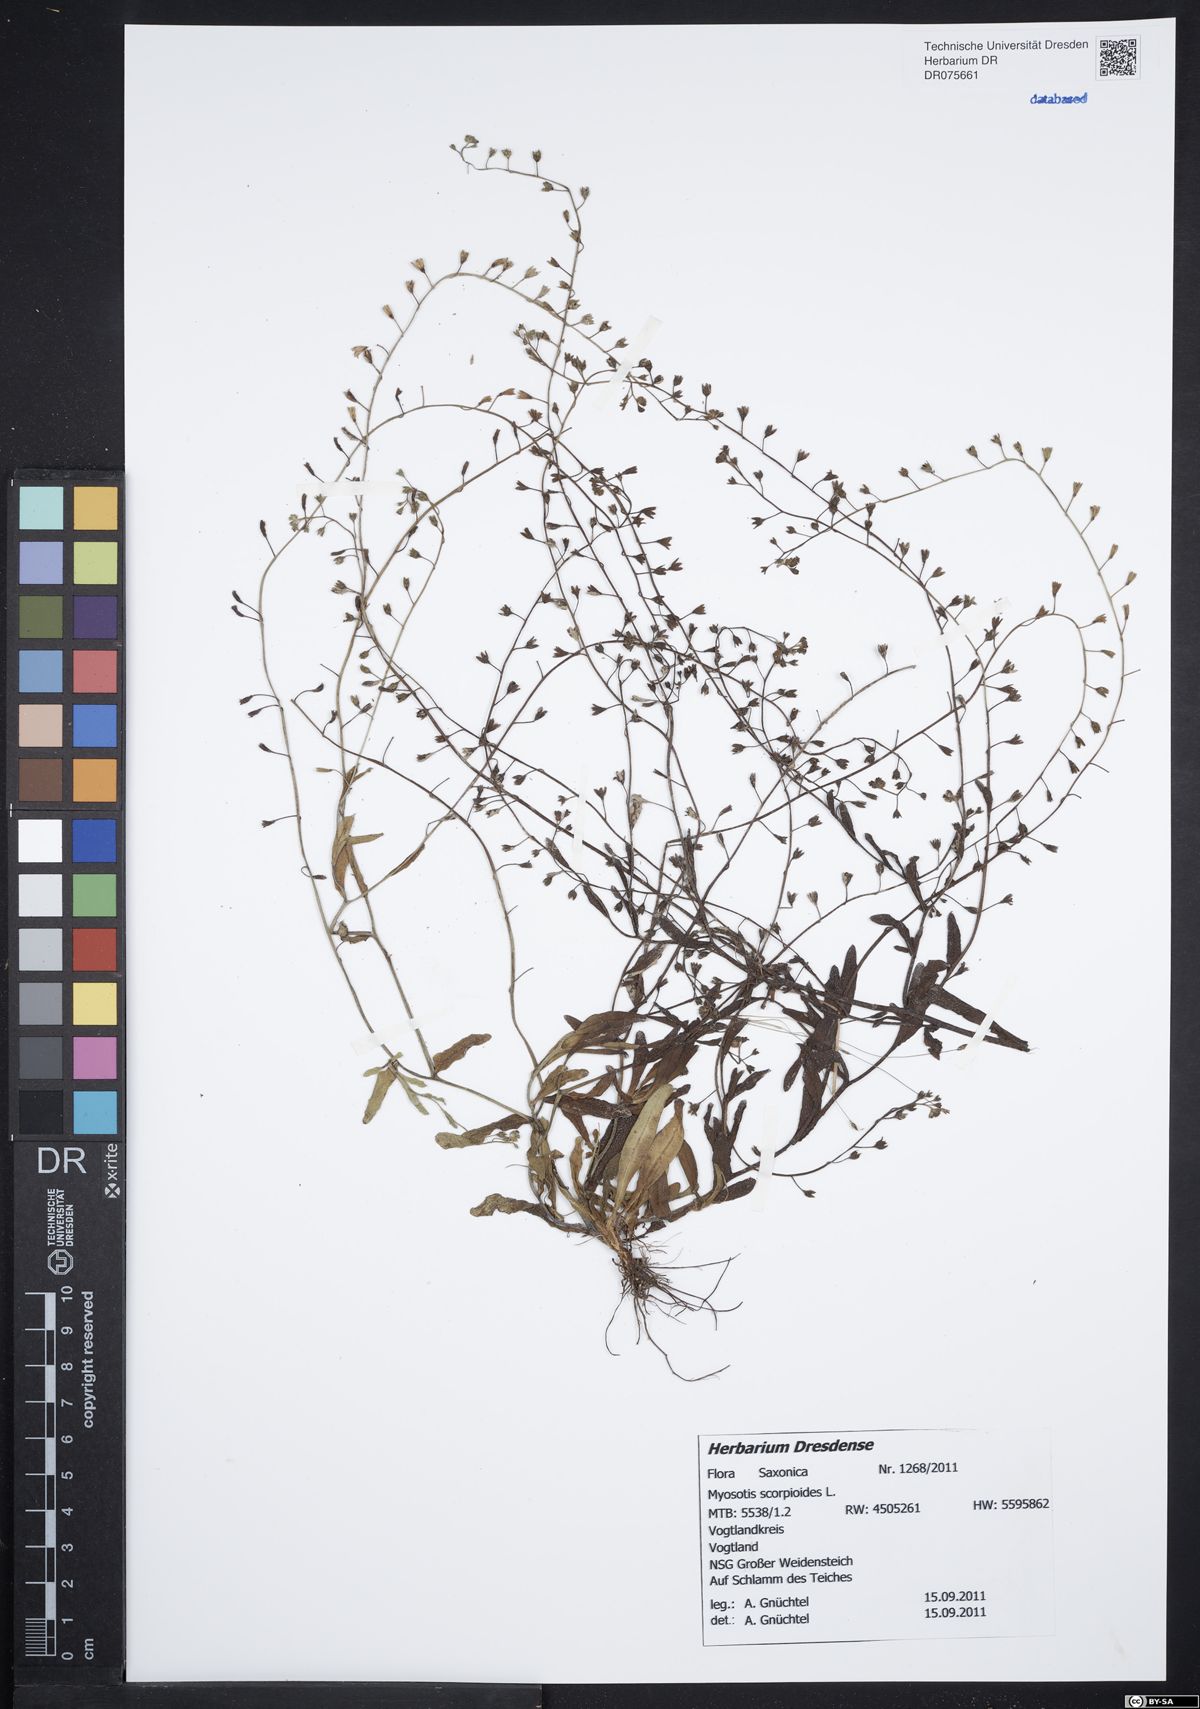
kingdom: Plantae
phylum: Tracheophyta
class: Magnoliopsida
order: Boraginales
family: Boraginaceae
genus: Myosotis
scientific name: Myosotis scorpioides
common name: Water forget-me-not
